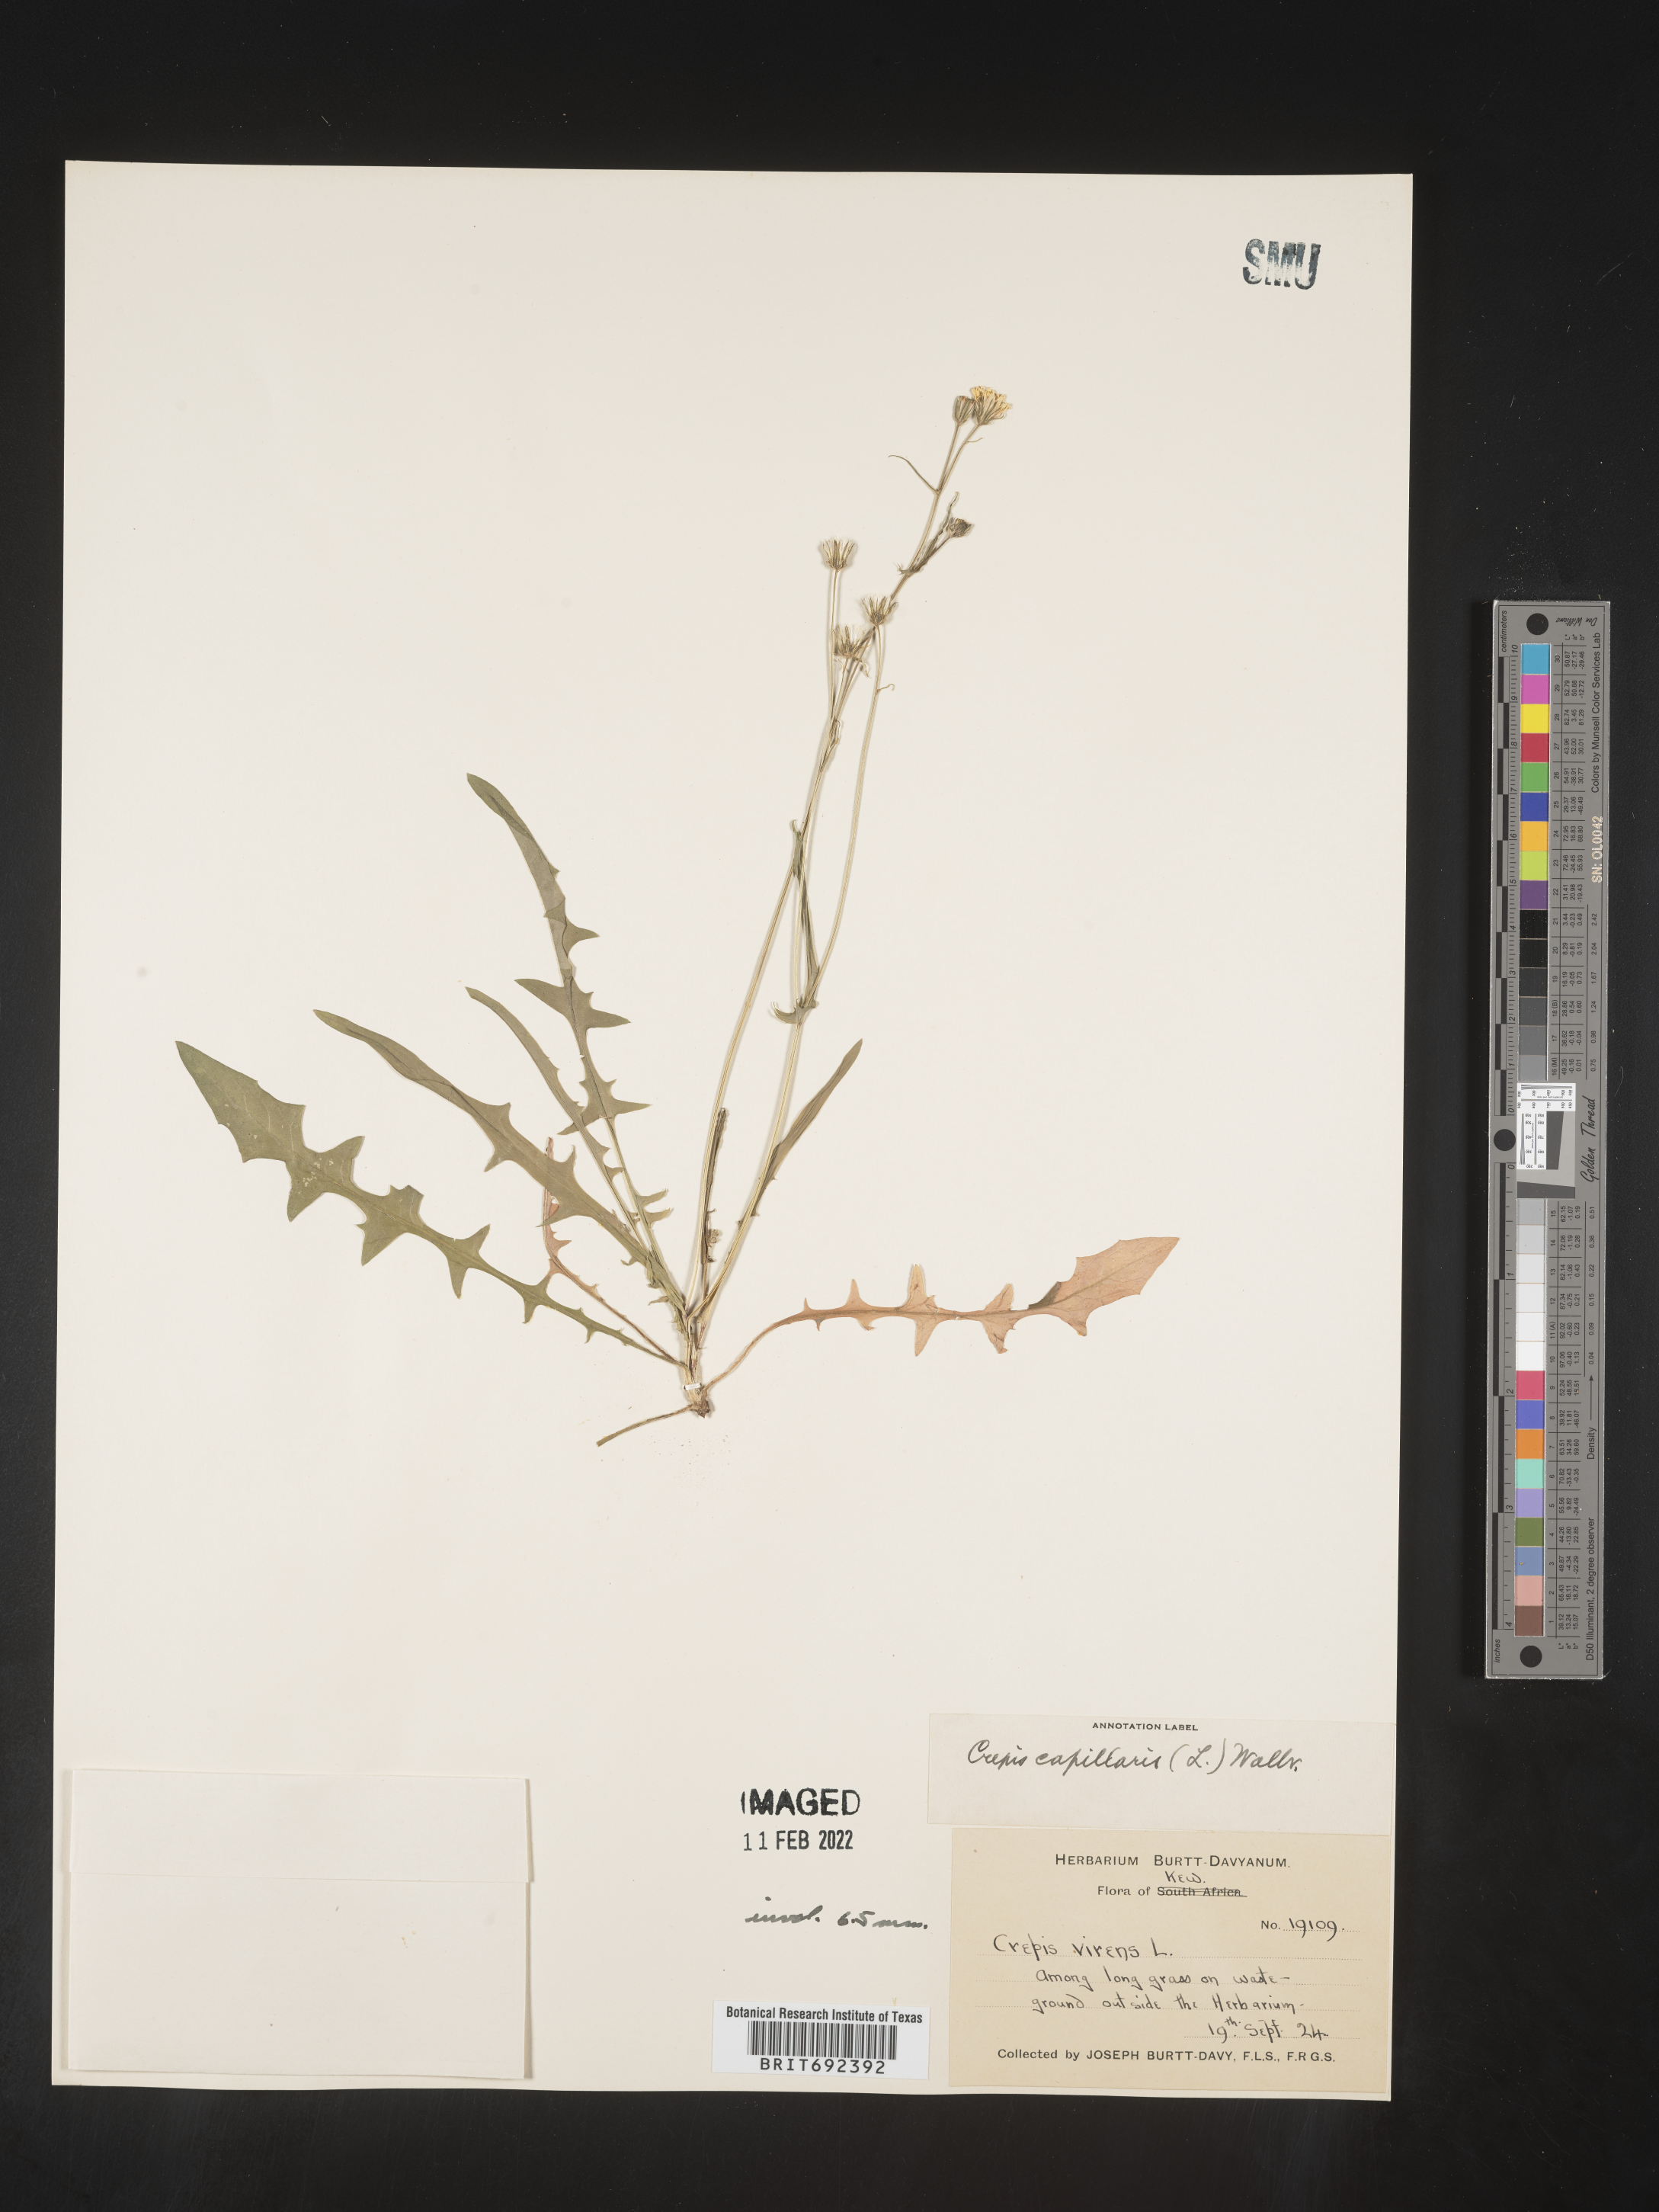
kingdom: Plantae
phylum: Tracheophyta
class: Magnoliopsida
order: Asterales
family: Asteraceae
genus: Crepis
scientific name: Crepis
